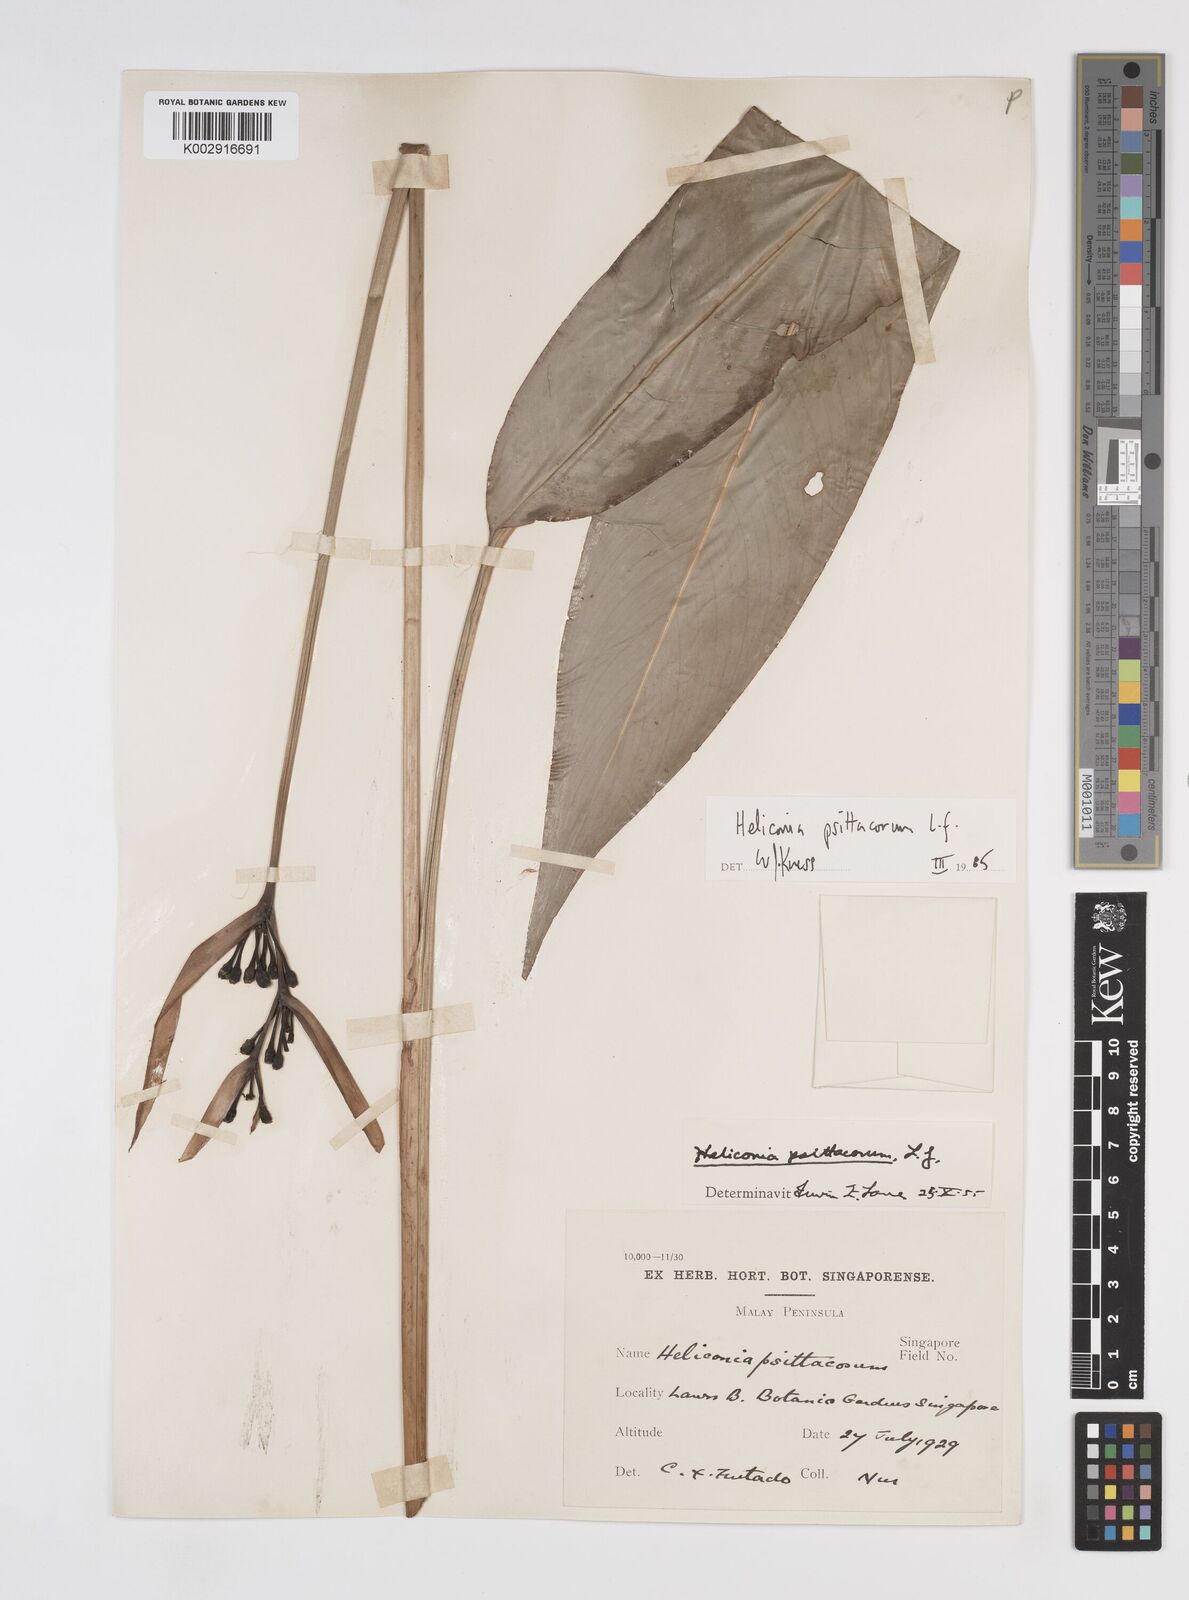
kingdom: Plantae
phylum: Tracheophyta
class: Liliopsida
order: Zingiberales
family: Heliconiaceae
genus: Heliconia
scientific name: Heliconia psittacorum
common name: Parrot's-flower
